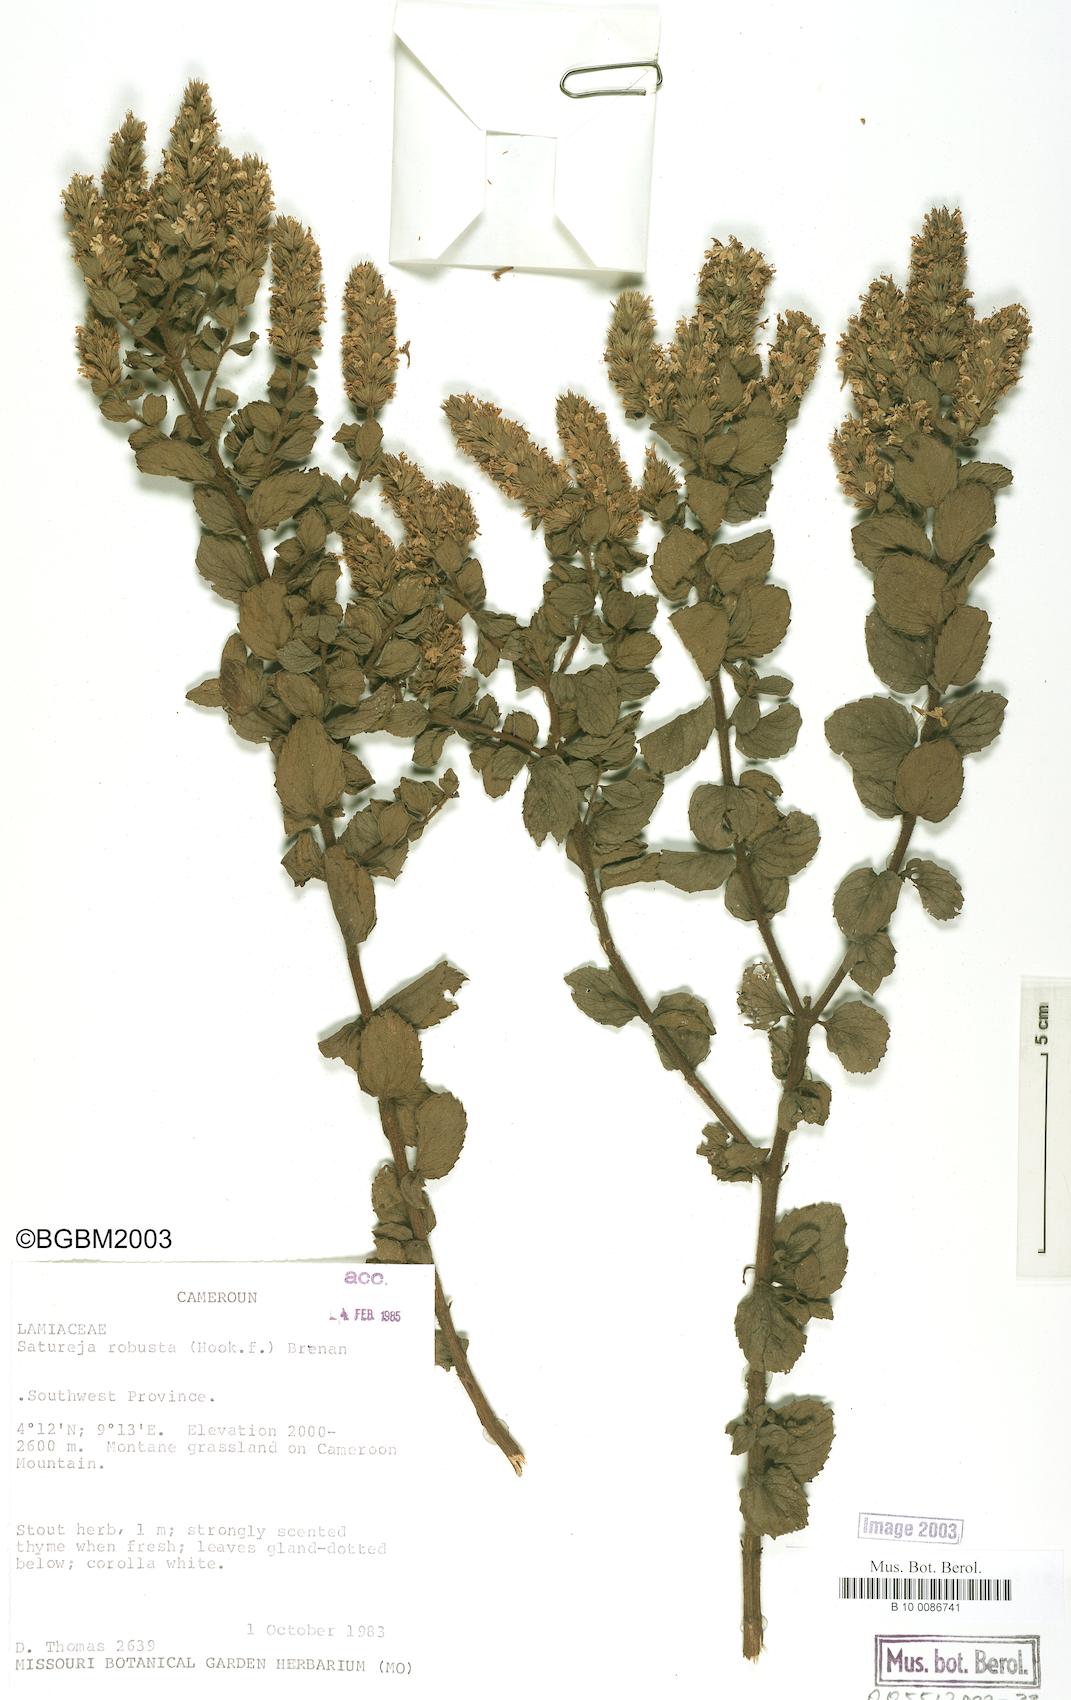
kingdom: Plantae
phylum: Tracheophyta
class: Magnoliopsida
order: Lamiales
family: Lamiaceae
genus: Clinopodium
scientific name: Clinopodium robustum
